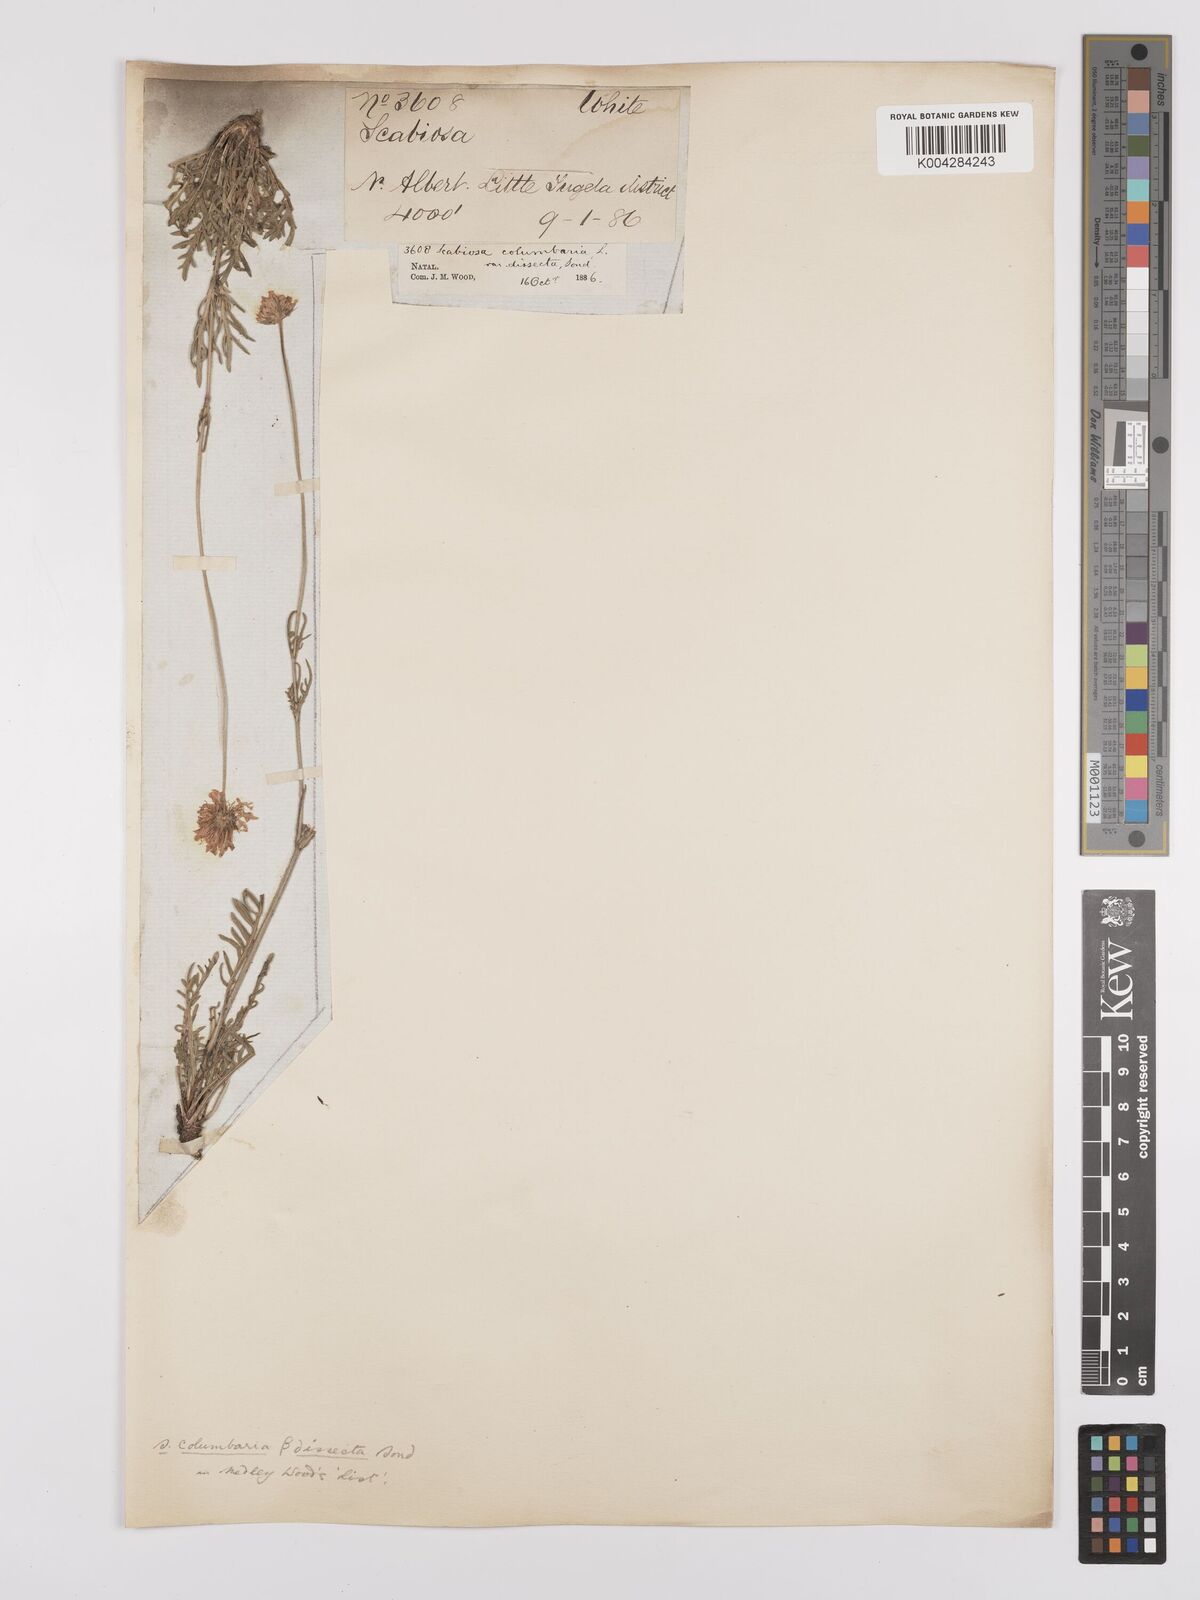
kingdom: Plantae
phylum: Tracheophyta
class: Magnoliopsida
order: Dipsacales
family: Caprifoliaceae
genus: Scabiosa
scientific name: Scabiosa columbaria
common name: Small scabious
